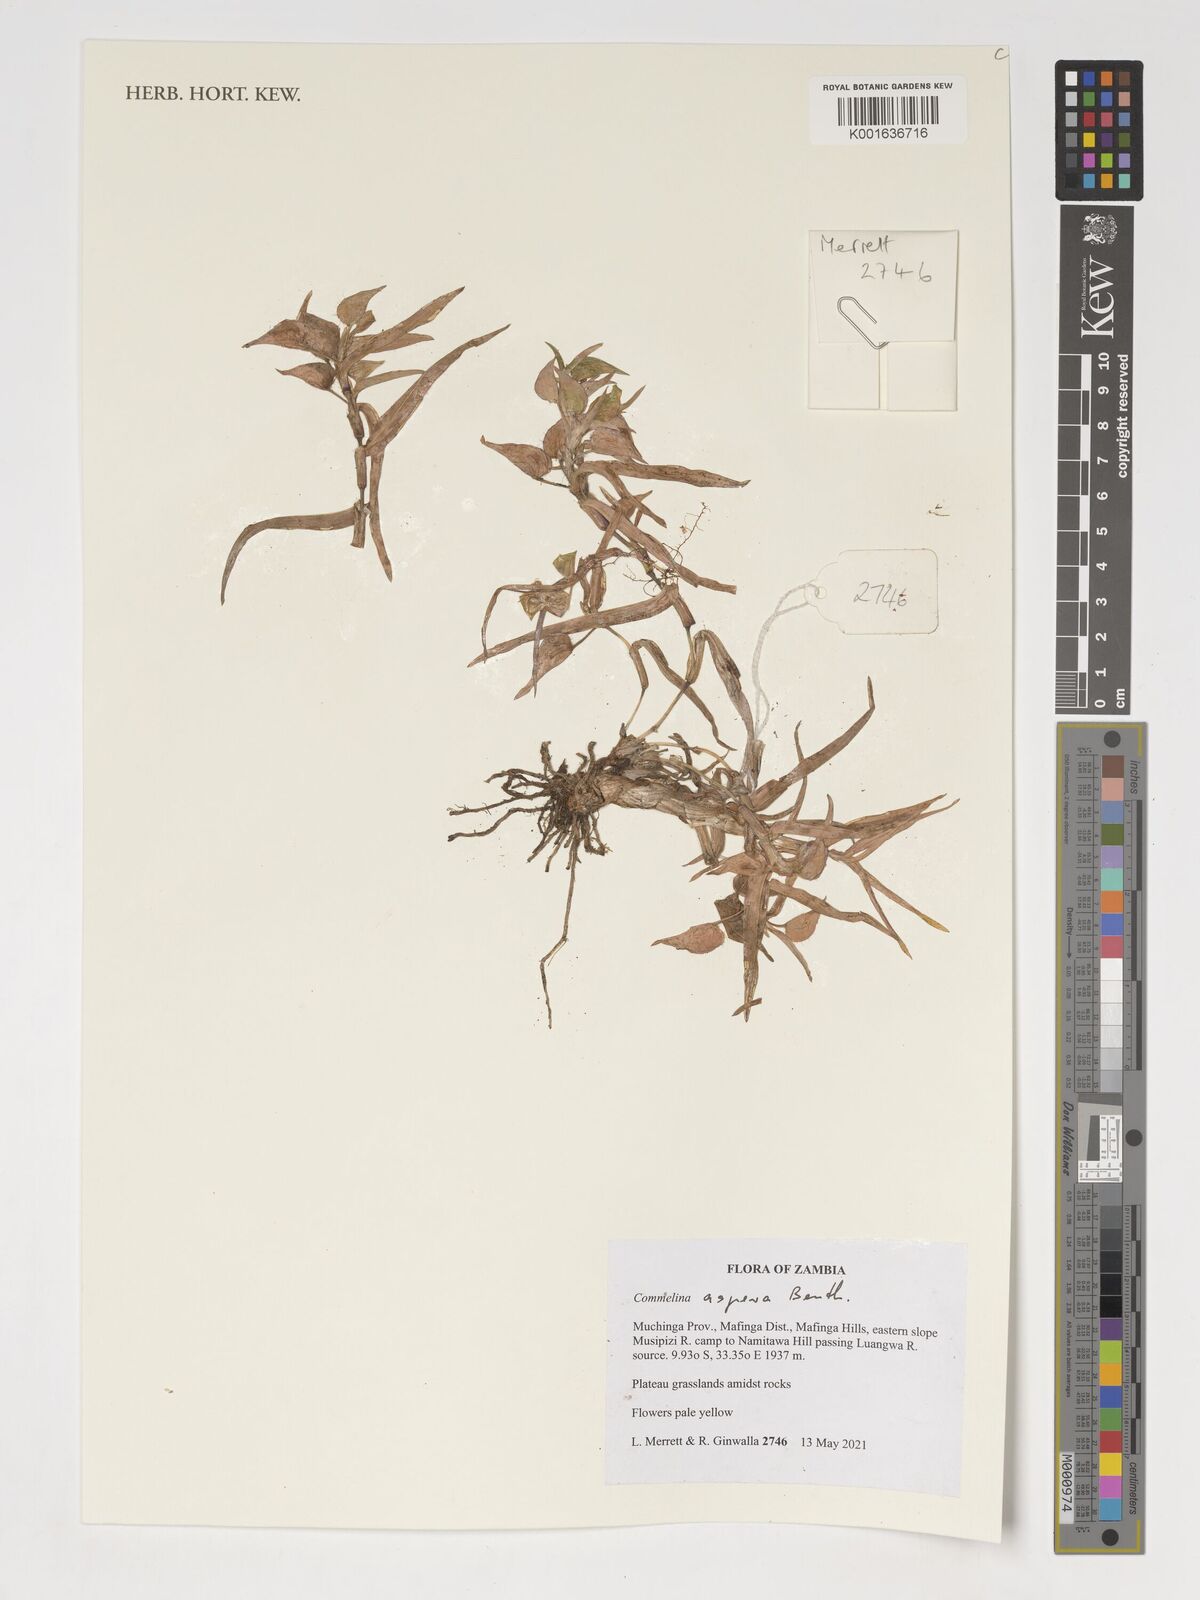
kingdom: Plantae
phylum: Tracheophyta
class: Liliopsida
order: Commelinales
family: Commelinaceae
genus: Commelina
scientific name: Commelina aspera
